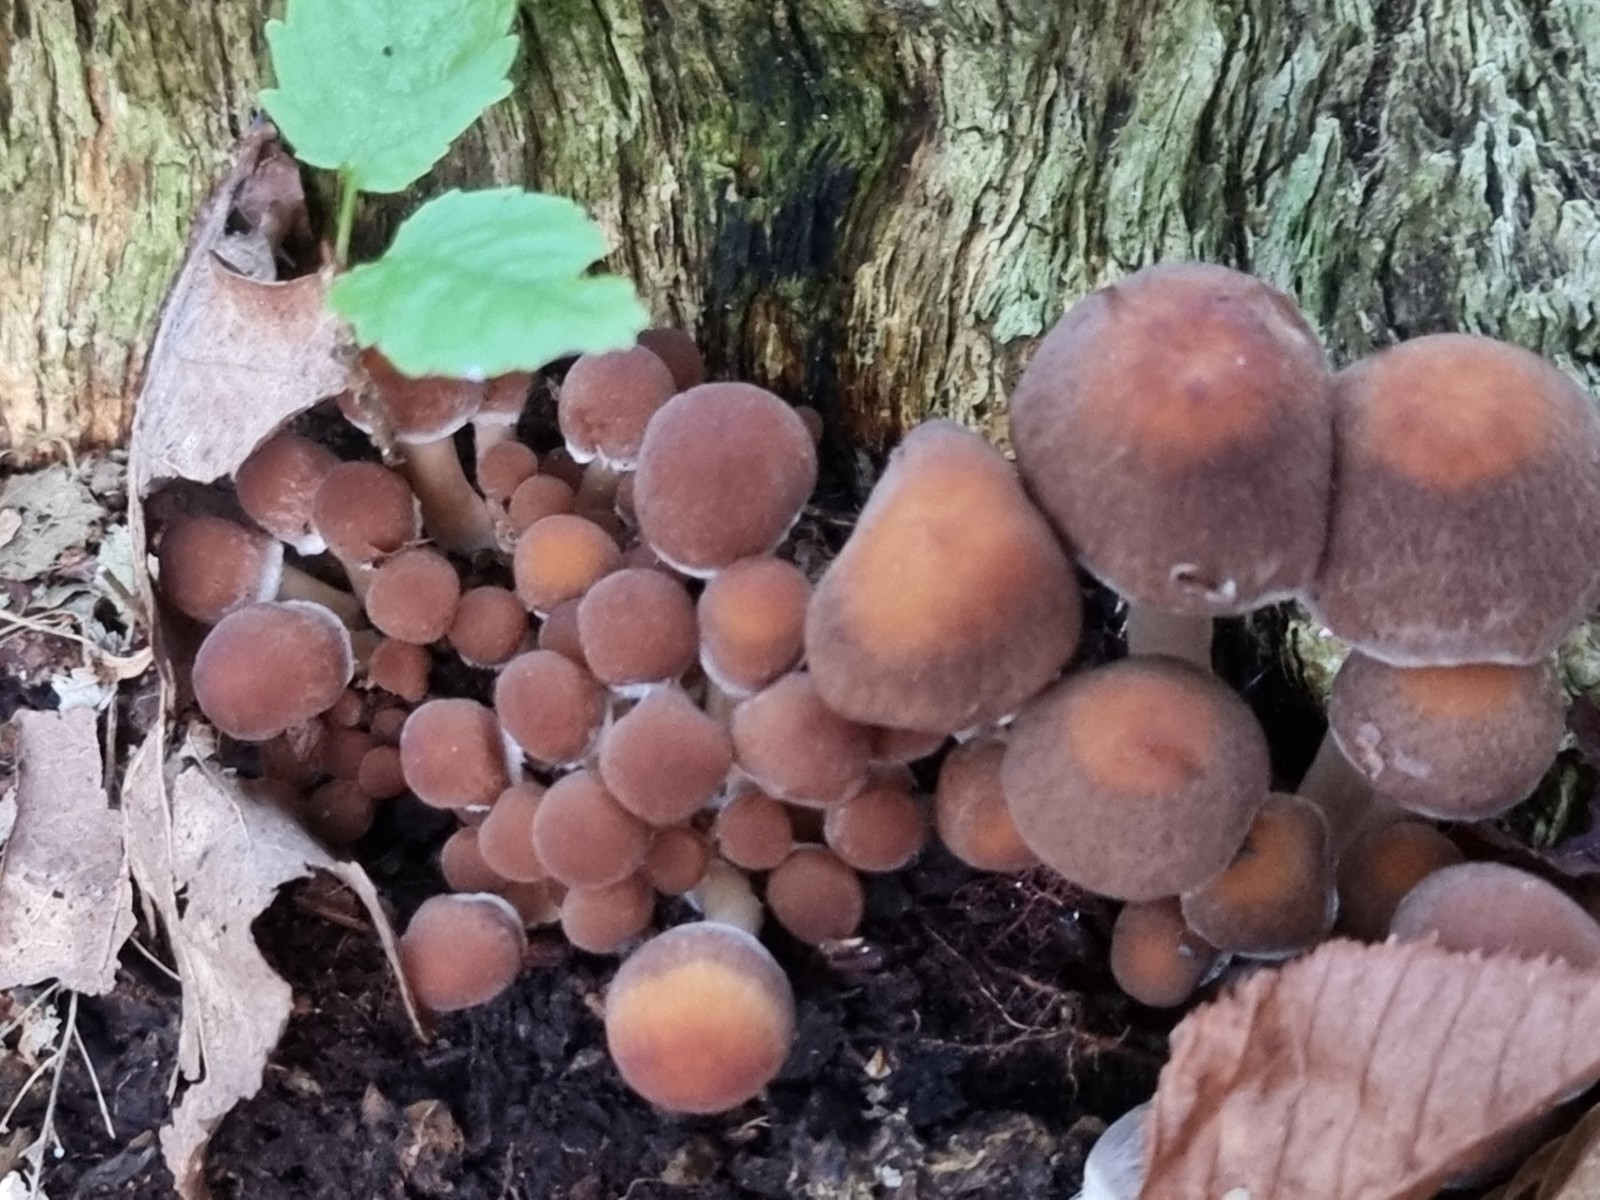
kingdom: Fungi
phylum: Basidiomycota
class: Agaricomycetes
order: Agaricales
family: Psathyrellaceae
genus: Psathyrella
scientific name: Psathyrella piluliformis
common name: lysstokket mørkhat
